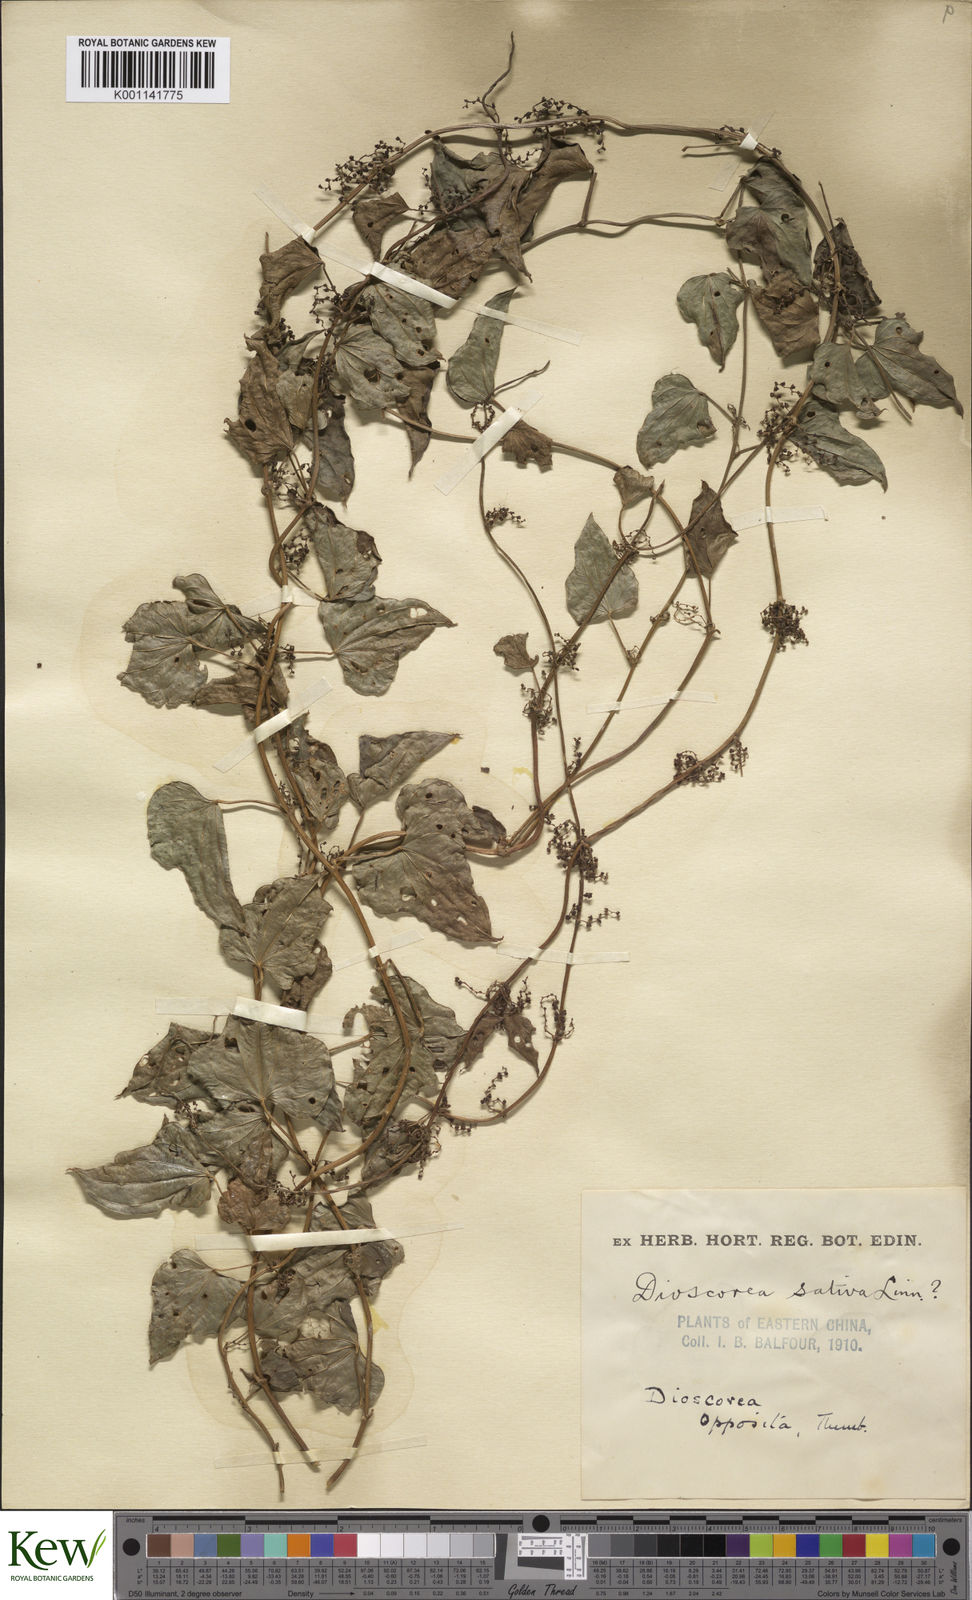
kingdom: Plantae
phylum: Tracheophyta
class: Liliopsida
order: Dioscoreales
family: Dioscoreaceae
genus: Dioscorea
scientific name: Dioscorea oppositifolia
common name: Chinese yam
